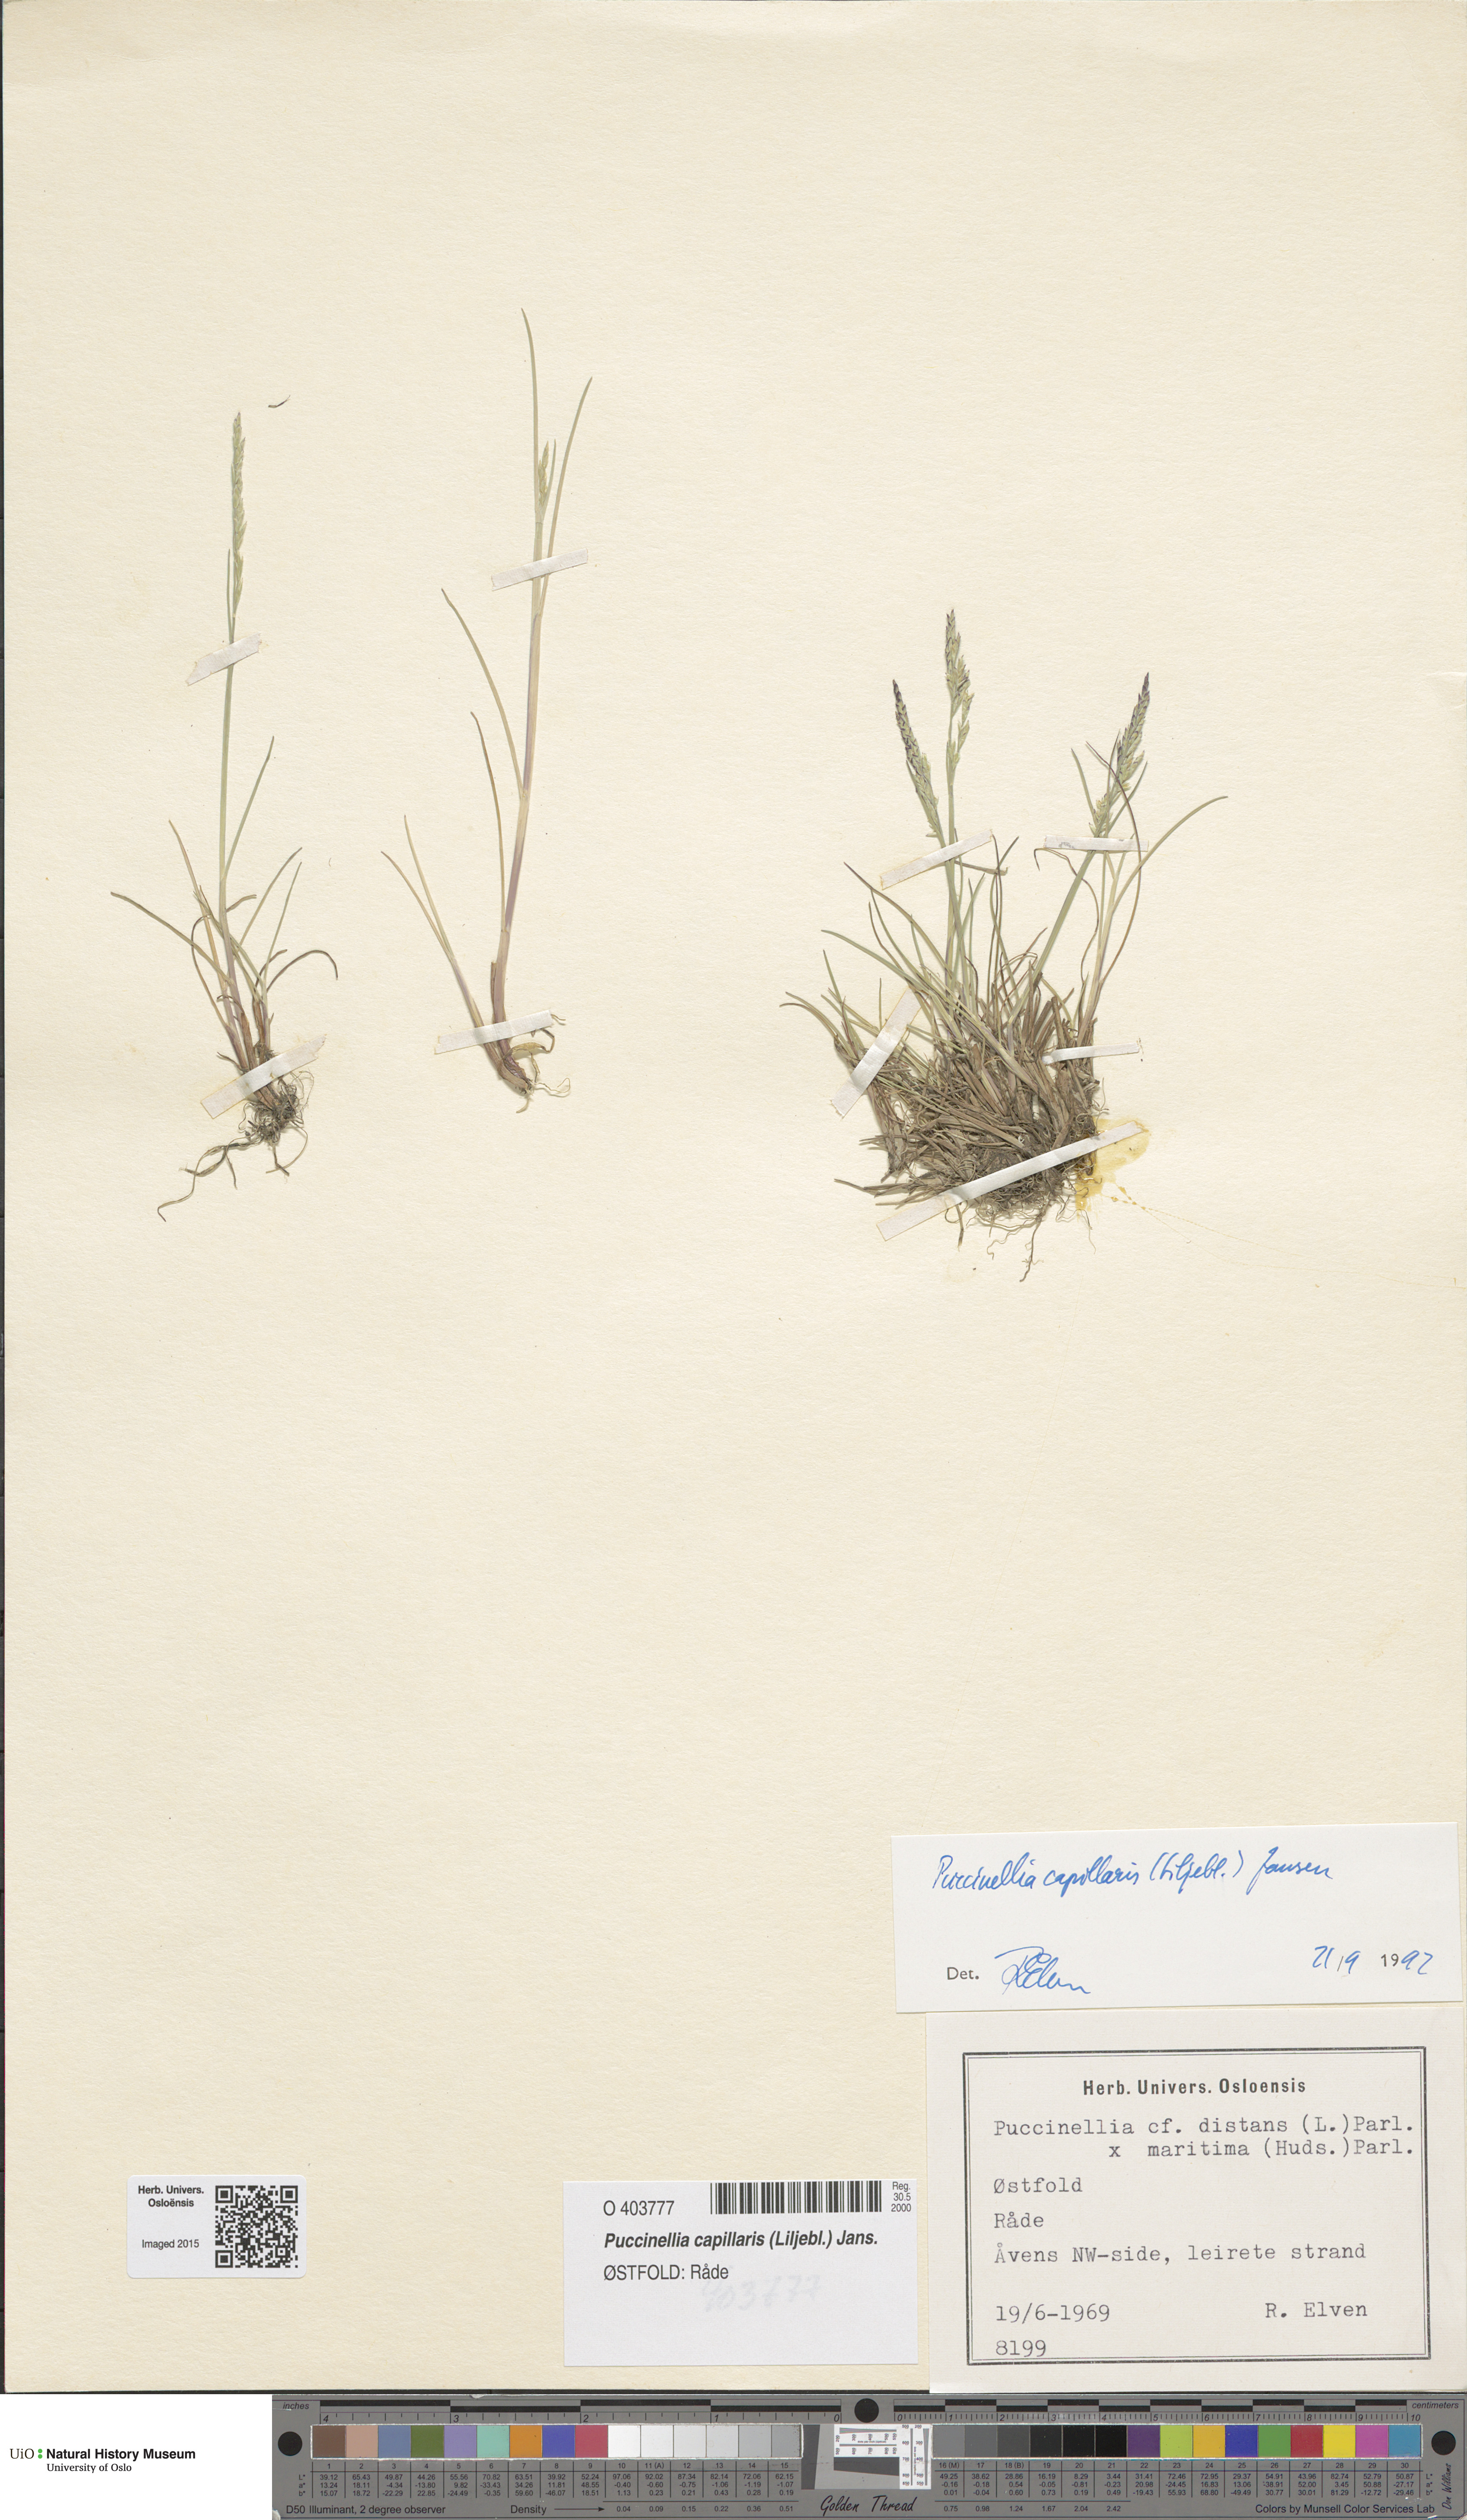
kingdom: Plantae
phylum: Tracheophyta
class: Liliopsida
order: Poales
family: Poaceae
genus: Puccinellia
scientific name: Puccinellia distans
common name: Weeping alkaligrass
